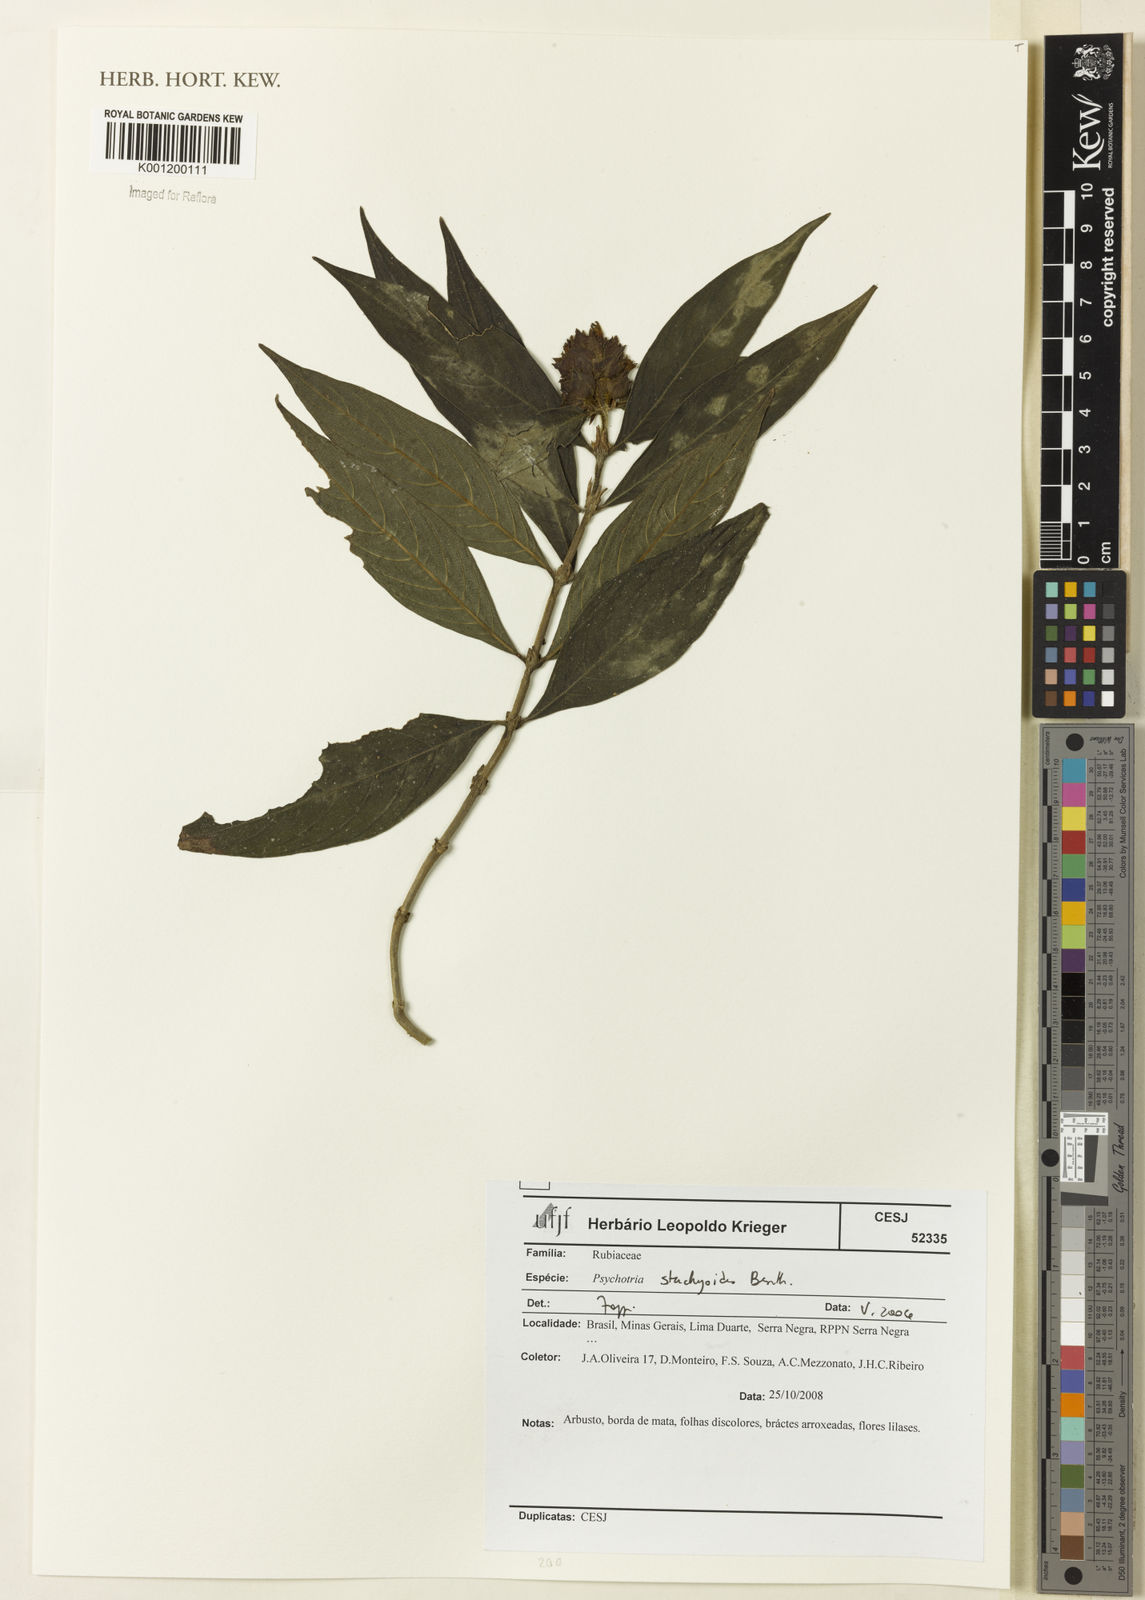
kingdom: Plantae
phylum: Tracheophyta
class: Magnoliopsida
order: Gentianales
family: Rubiaceae
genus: Psychotria
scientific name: Psychotria stachyoides
